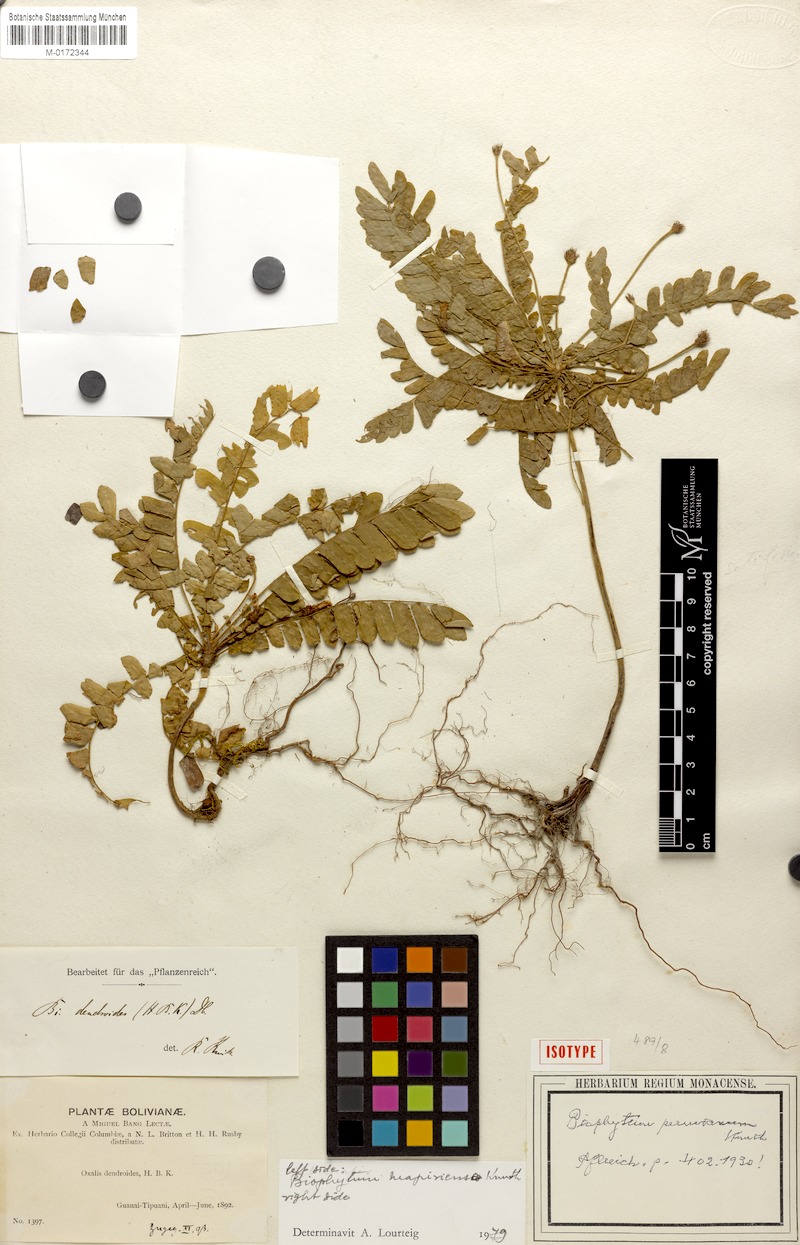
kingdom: Plantae
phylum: Tracheophyta
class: Magnoliopsida
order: Oxalidales
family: Oxalidaceae
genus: Biophytum
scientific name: Biophytum peruvianum
